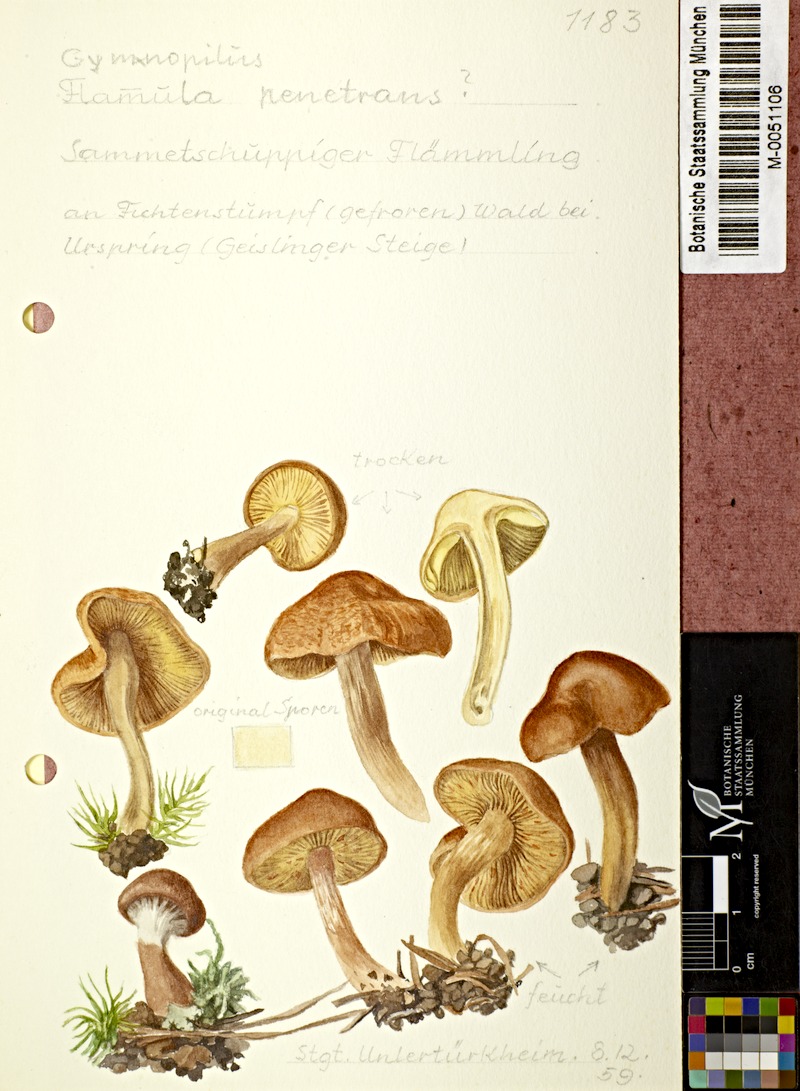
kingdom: Fungi
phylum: Basidiomycota
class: Agaricomycetes
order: Agaricales
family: Hymenogastraceae
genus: Gymnopilus
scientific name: Gymnopilus penetrans
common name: Common rustgill
